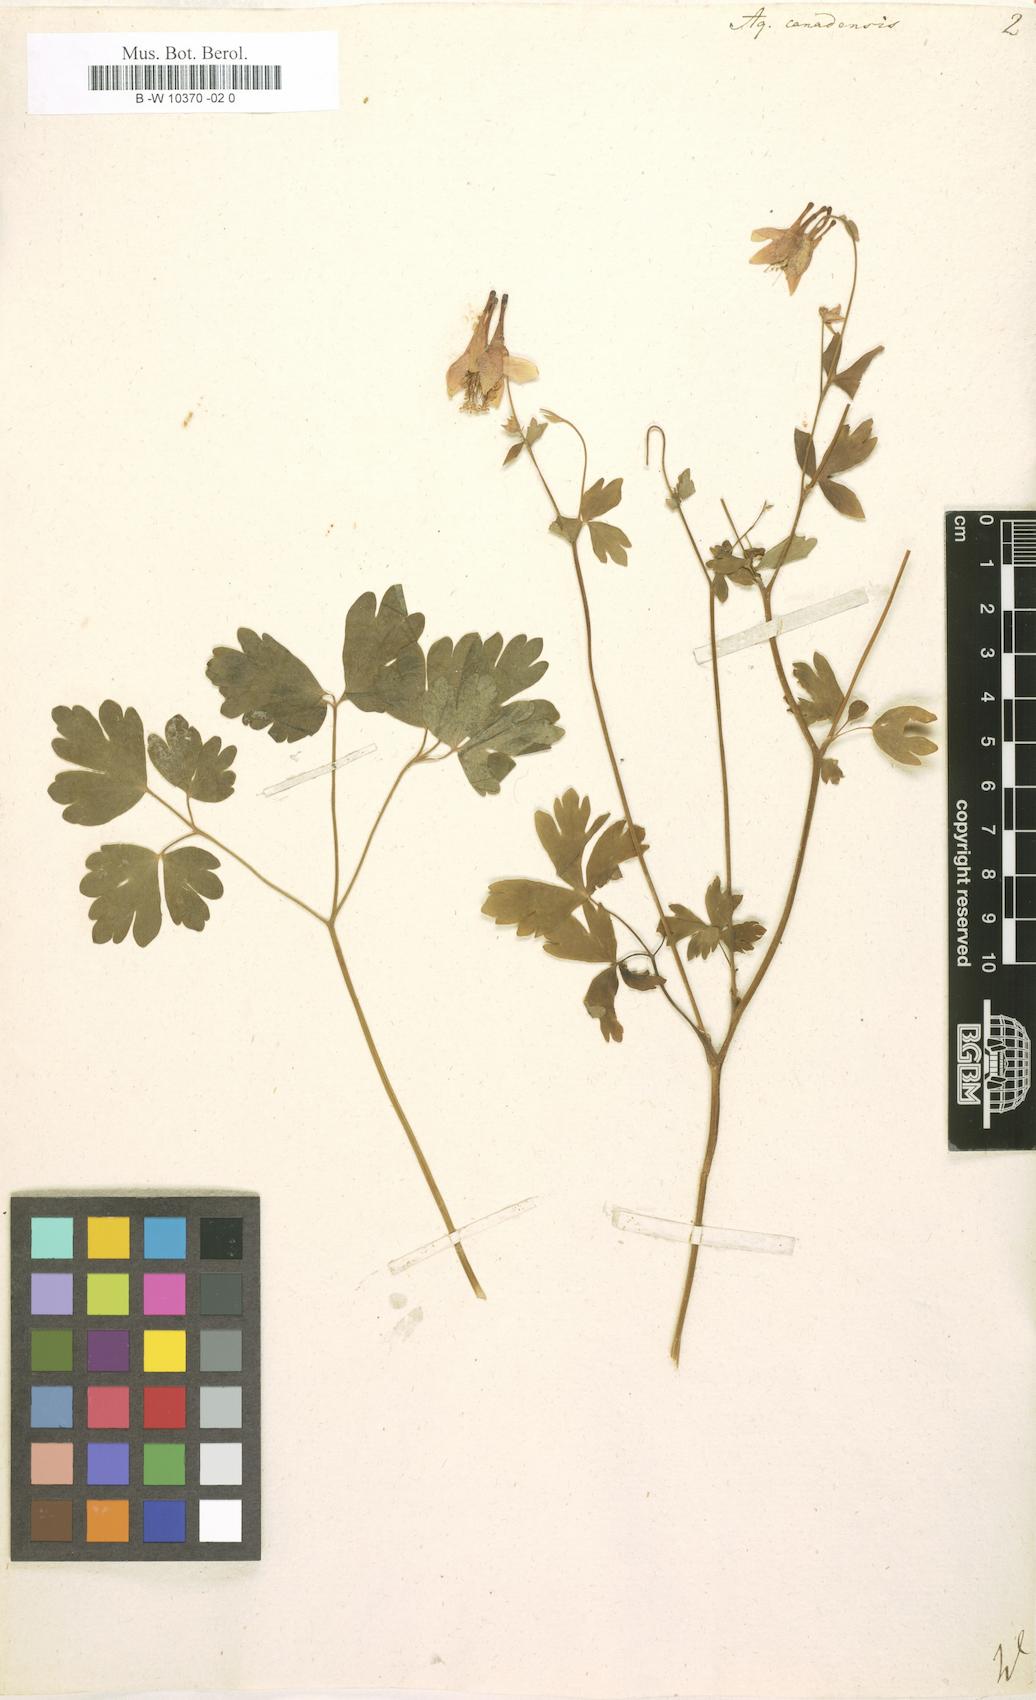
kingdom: Plantae
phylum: Tracheophyta
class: Magnoliopsida
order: Ranunculales
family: Ranunculaceae
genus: Aquilegia
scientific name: Aquilegia canadensis
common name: American columbine
